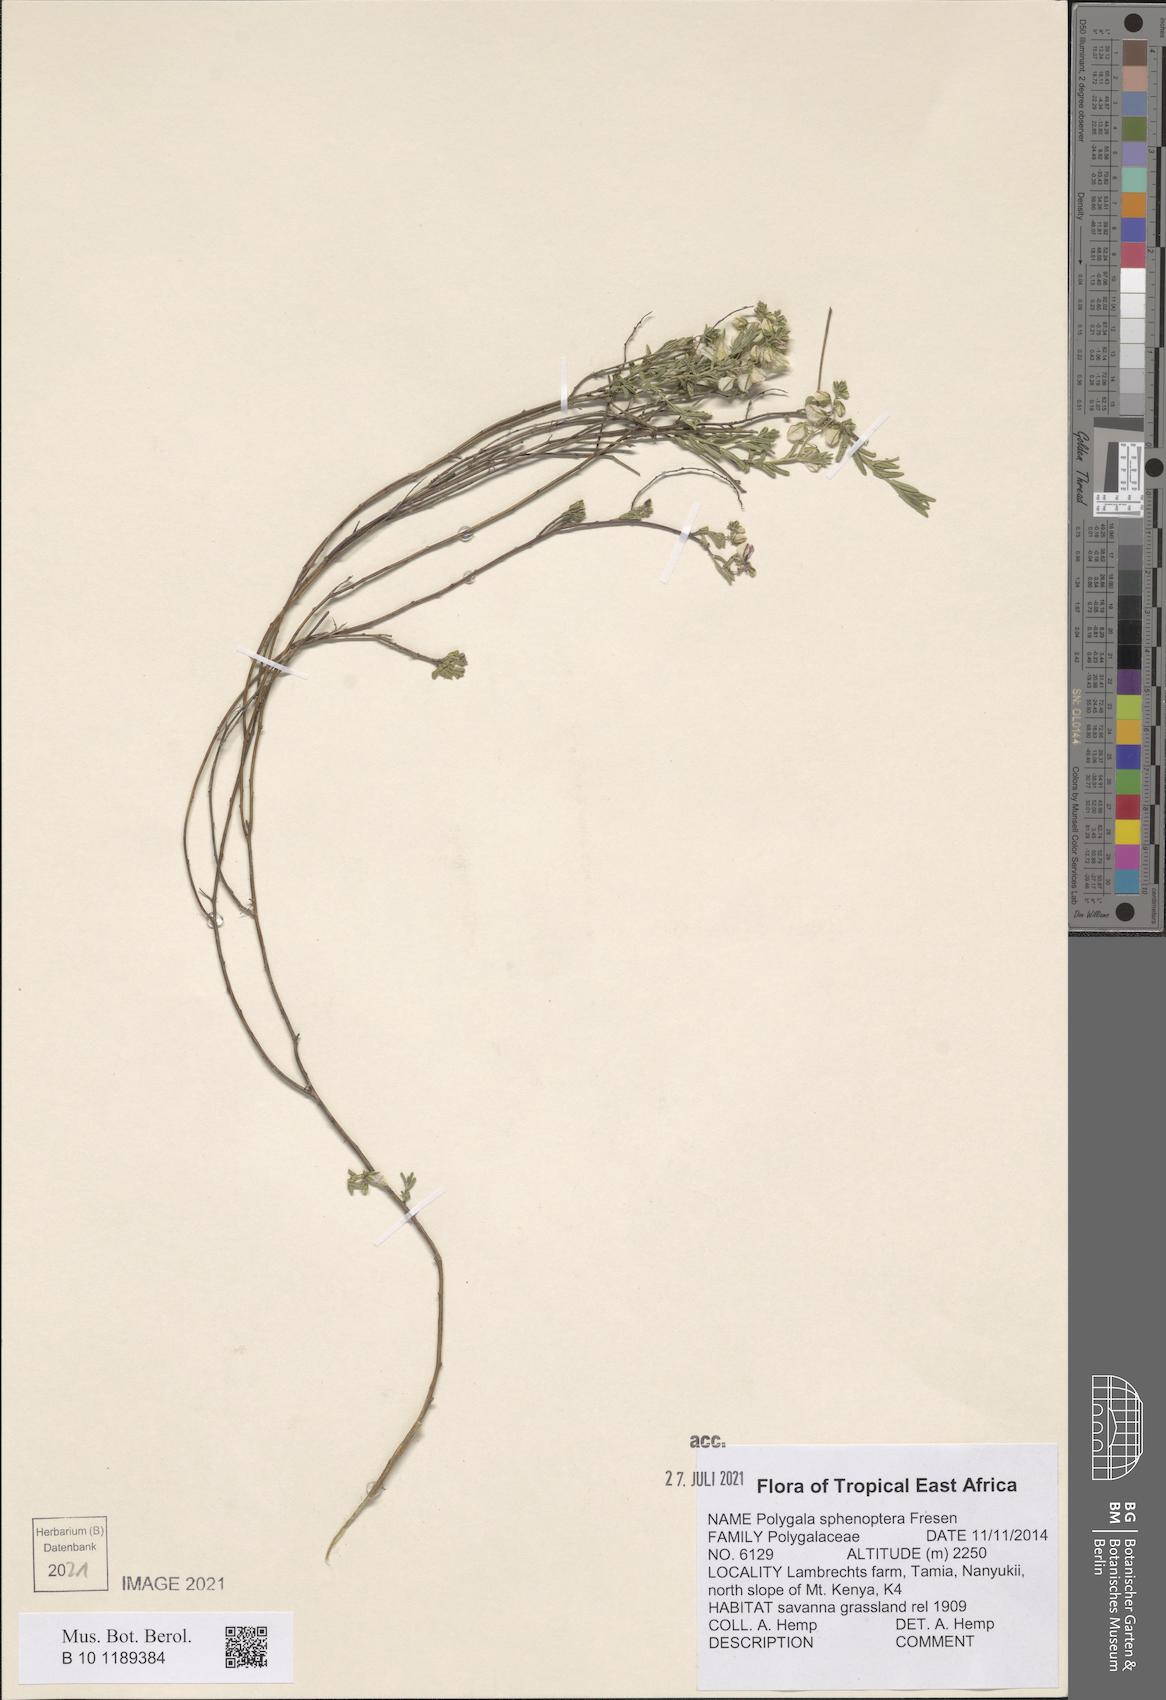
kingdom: Plantae
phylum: Tracheophyta
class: Magnoliopsida
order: Fabales
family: Polygalaceae
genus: Polygala
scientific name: Polygala sphenoptera
